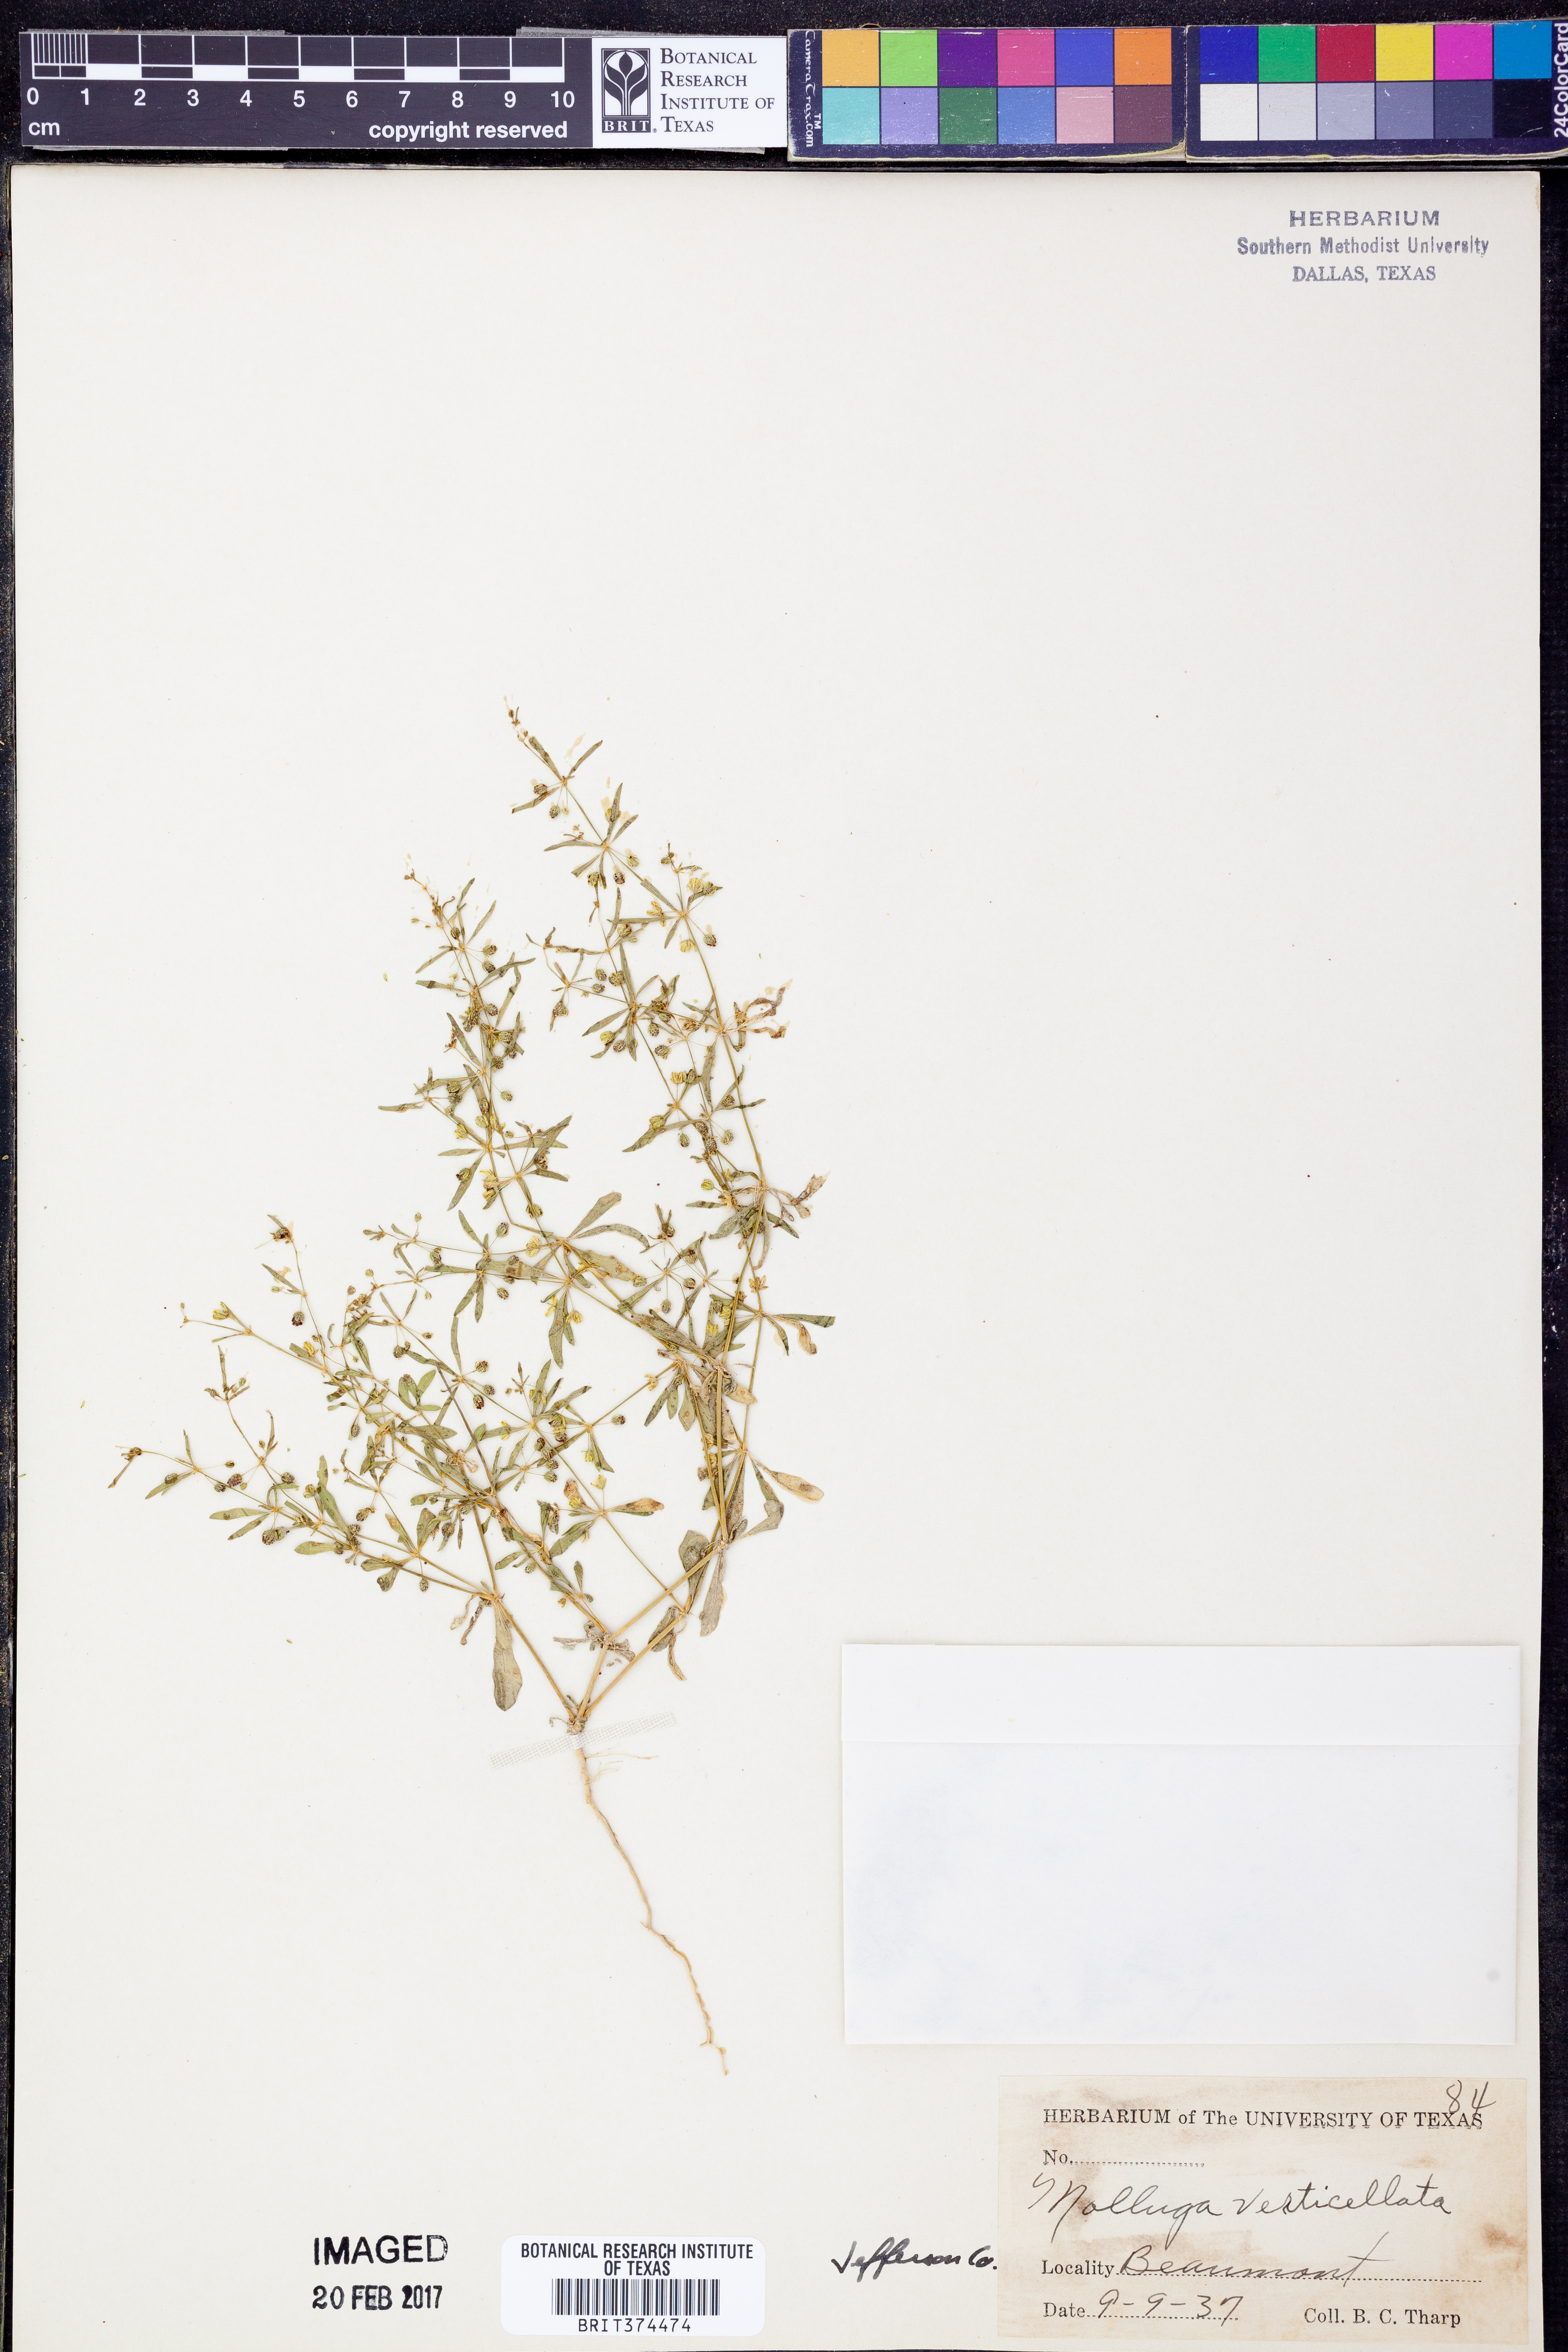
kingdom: Plantae
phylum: Tracheophyta
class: Magnoliopsida
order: Caryophyllales
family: Molluginaceae
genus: Mollugo
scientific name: Mollugo verticillata
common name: Green carpetweed
